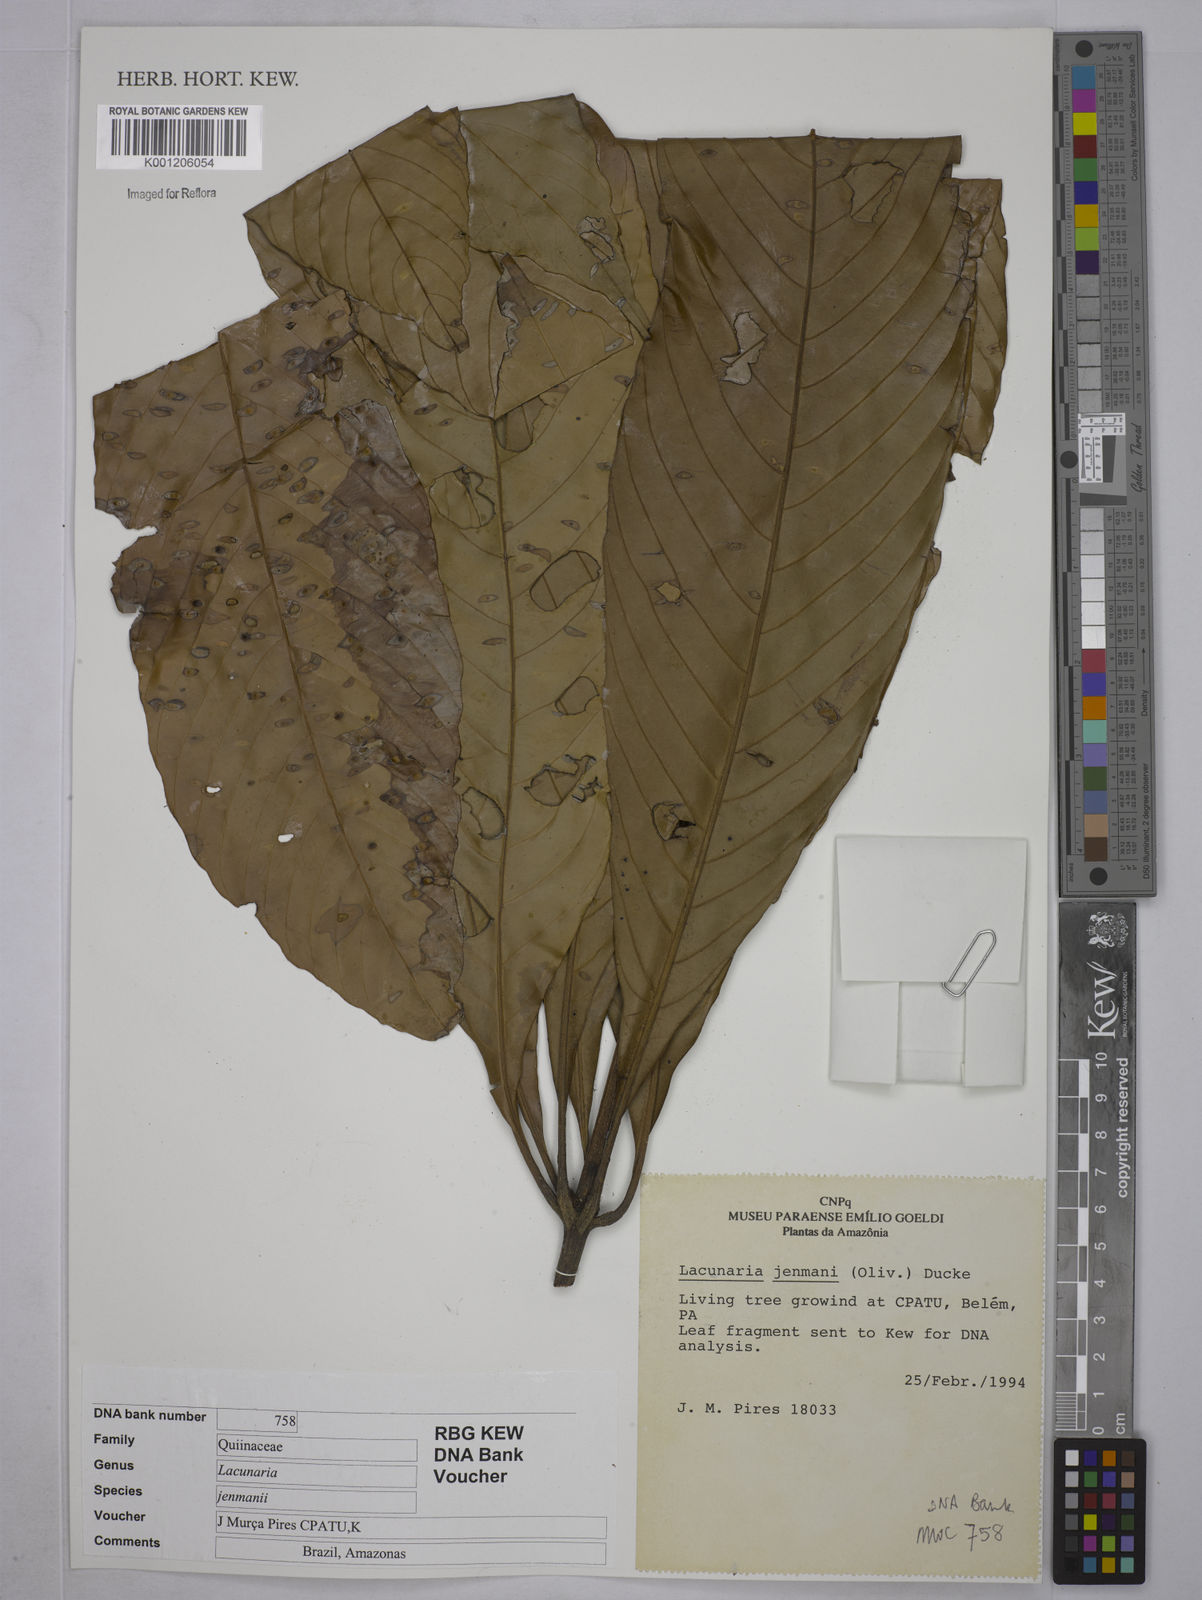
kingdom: Plantae
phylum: Tracheophyta
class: Magnoliopsida
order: Malpighiales
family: Quiinaceae
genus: Lacunaria
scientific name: Lacunaria jenmanii
